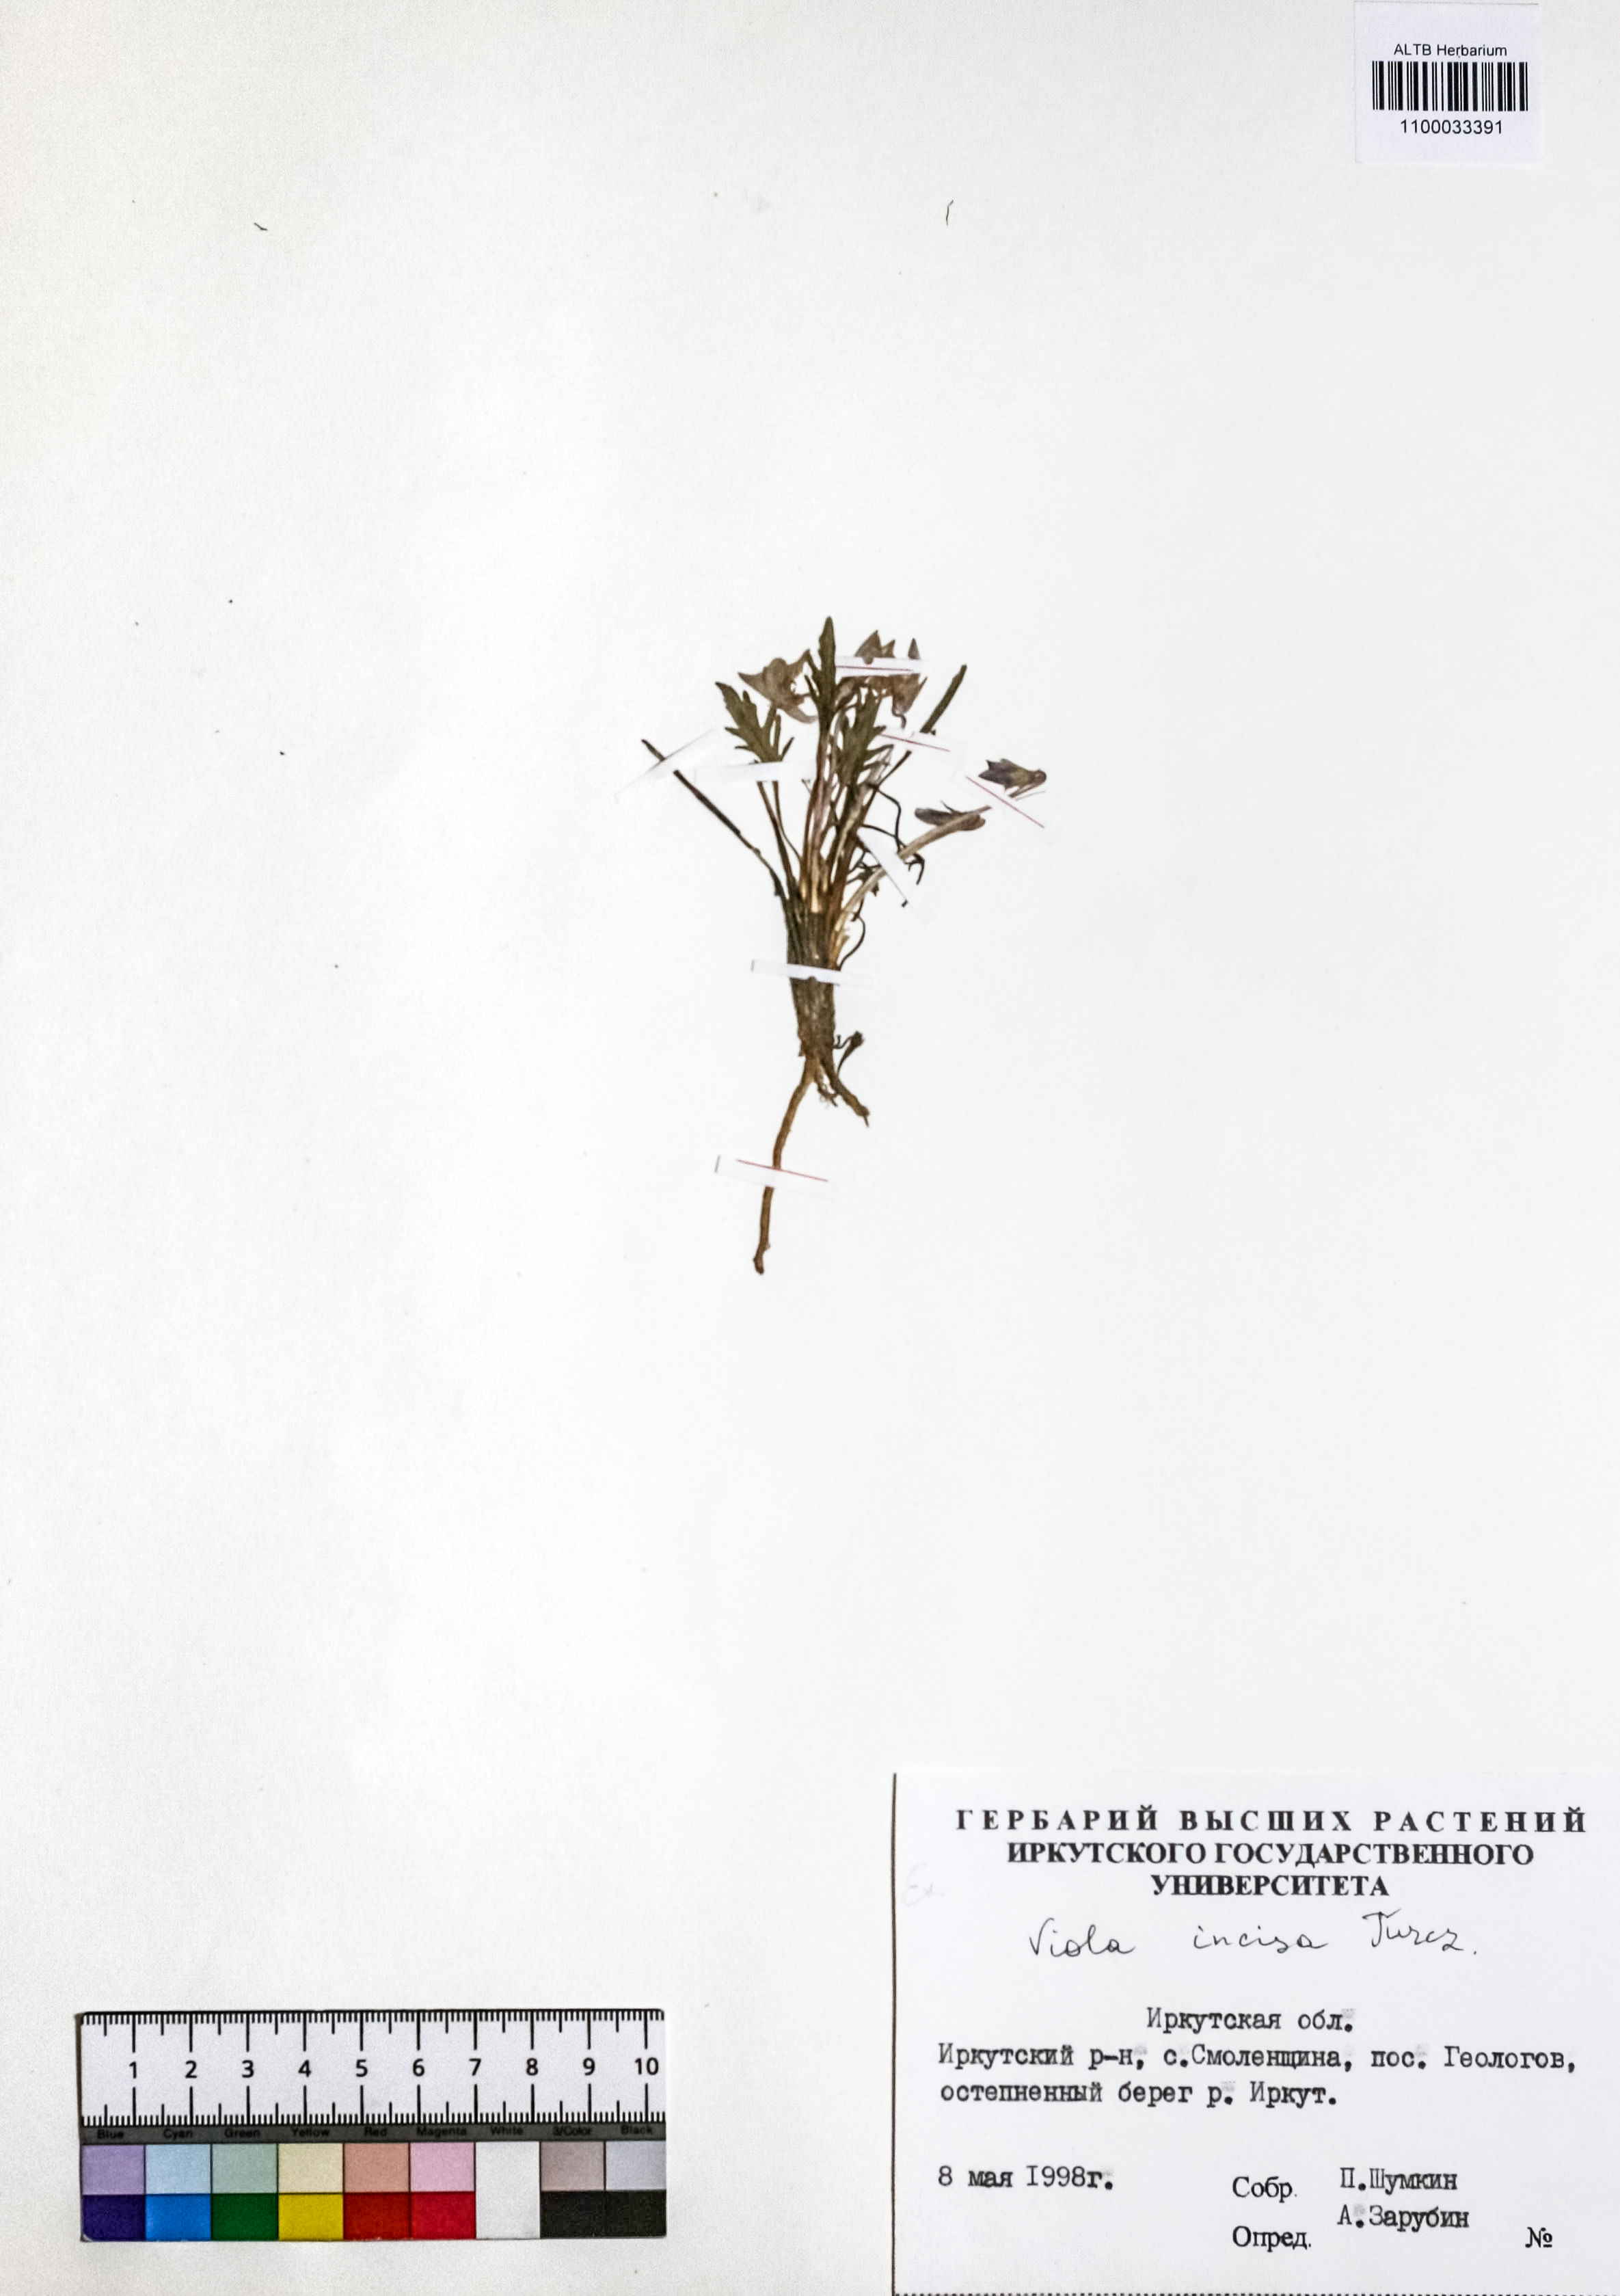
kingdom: Plantae
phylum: Tracheophyta
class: Magnoliopsida
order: Malpighiales
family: Violaceae
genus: Viola
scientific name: Viola incisa
